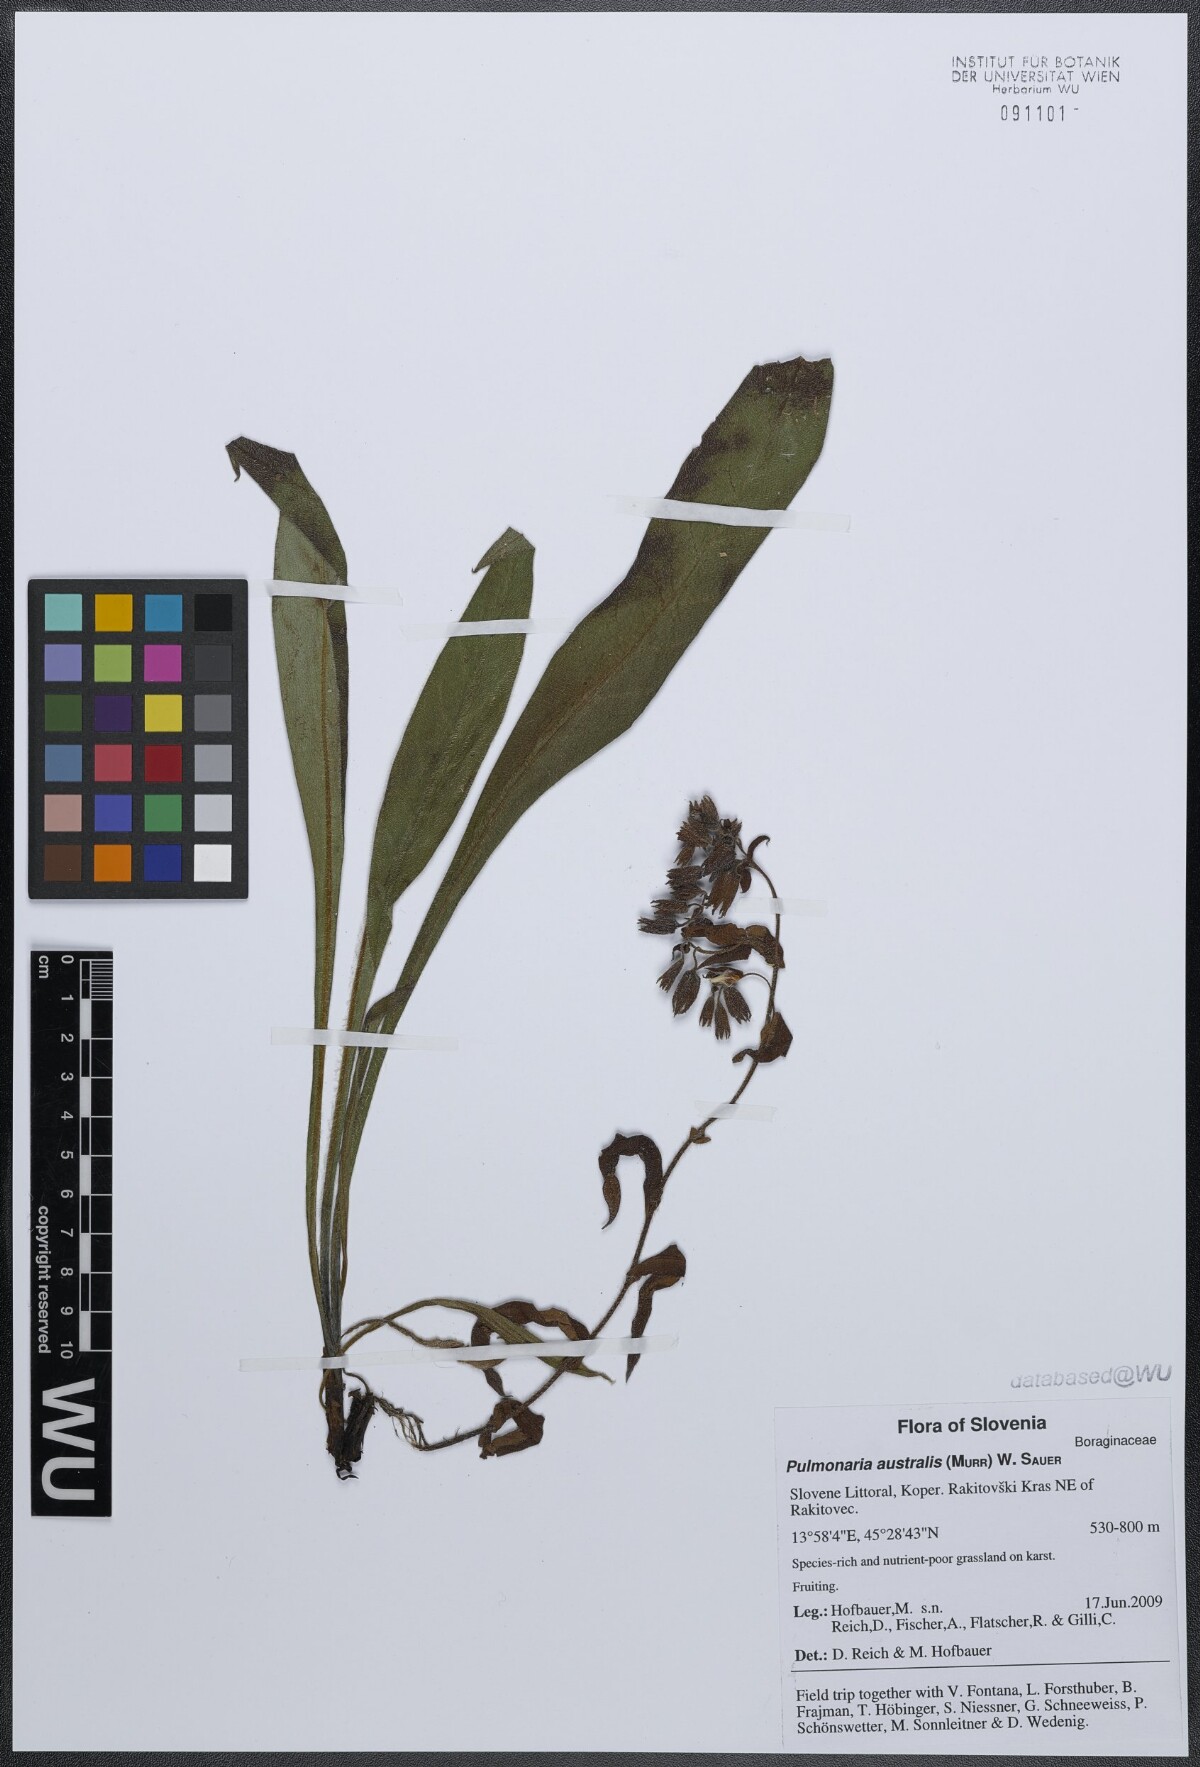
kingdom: Plantae
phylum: Tracheophyta
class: Magnoliopsida
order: Boraginales
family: Boraginaceae
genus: Pulmonaria
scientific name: Pulmonaria australis
